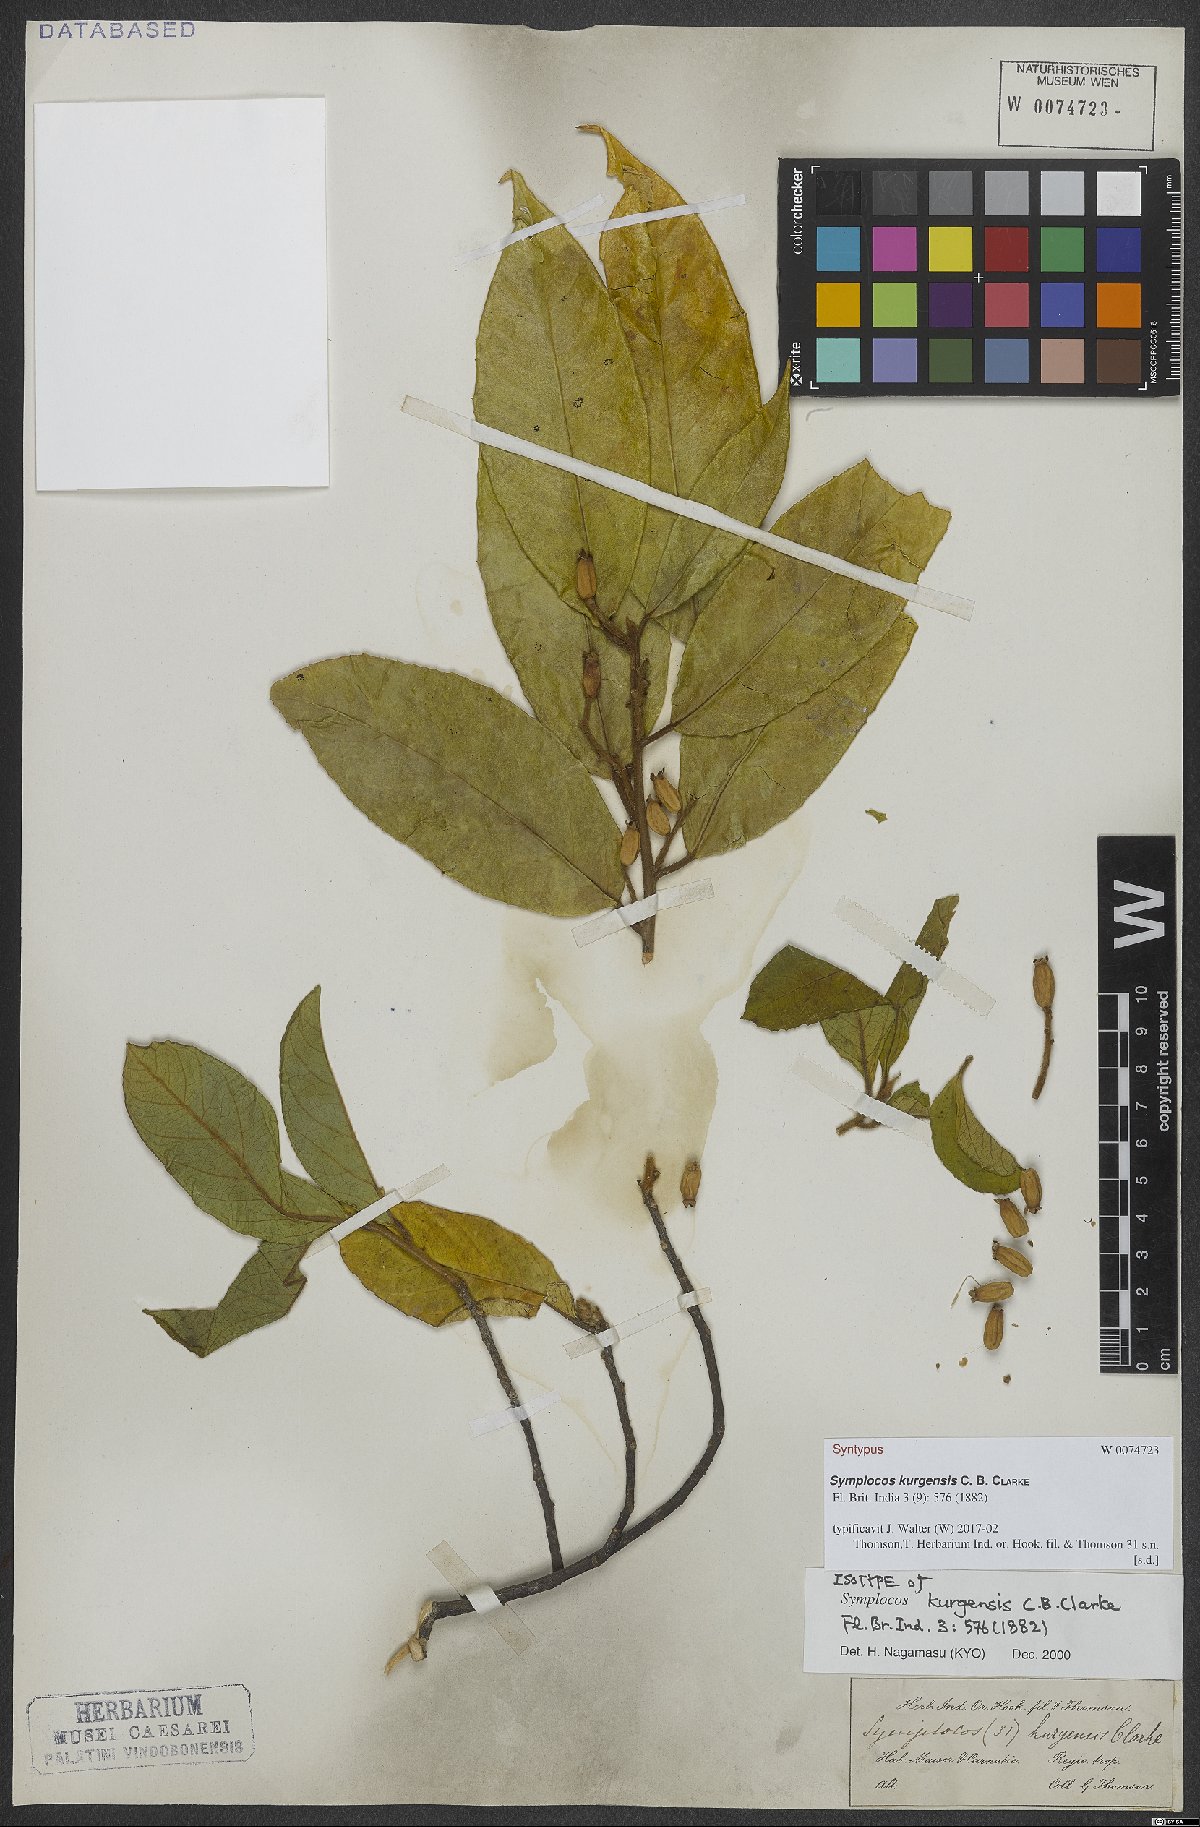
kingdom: Plantae
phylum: Tracheophyta
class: Magnoliopsida
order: Ericales
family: Symplocaceae
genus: Symplocos
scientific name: Symplocos kurgensis
